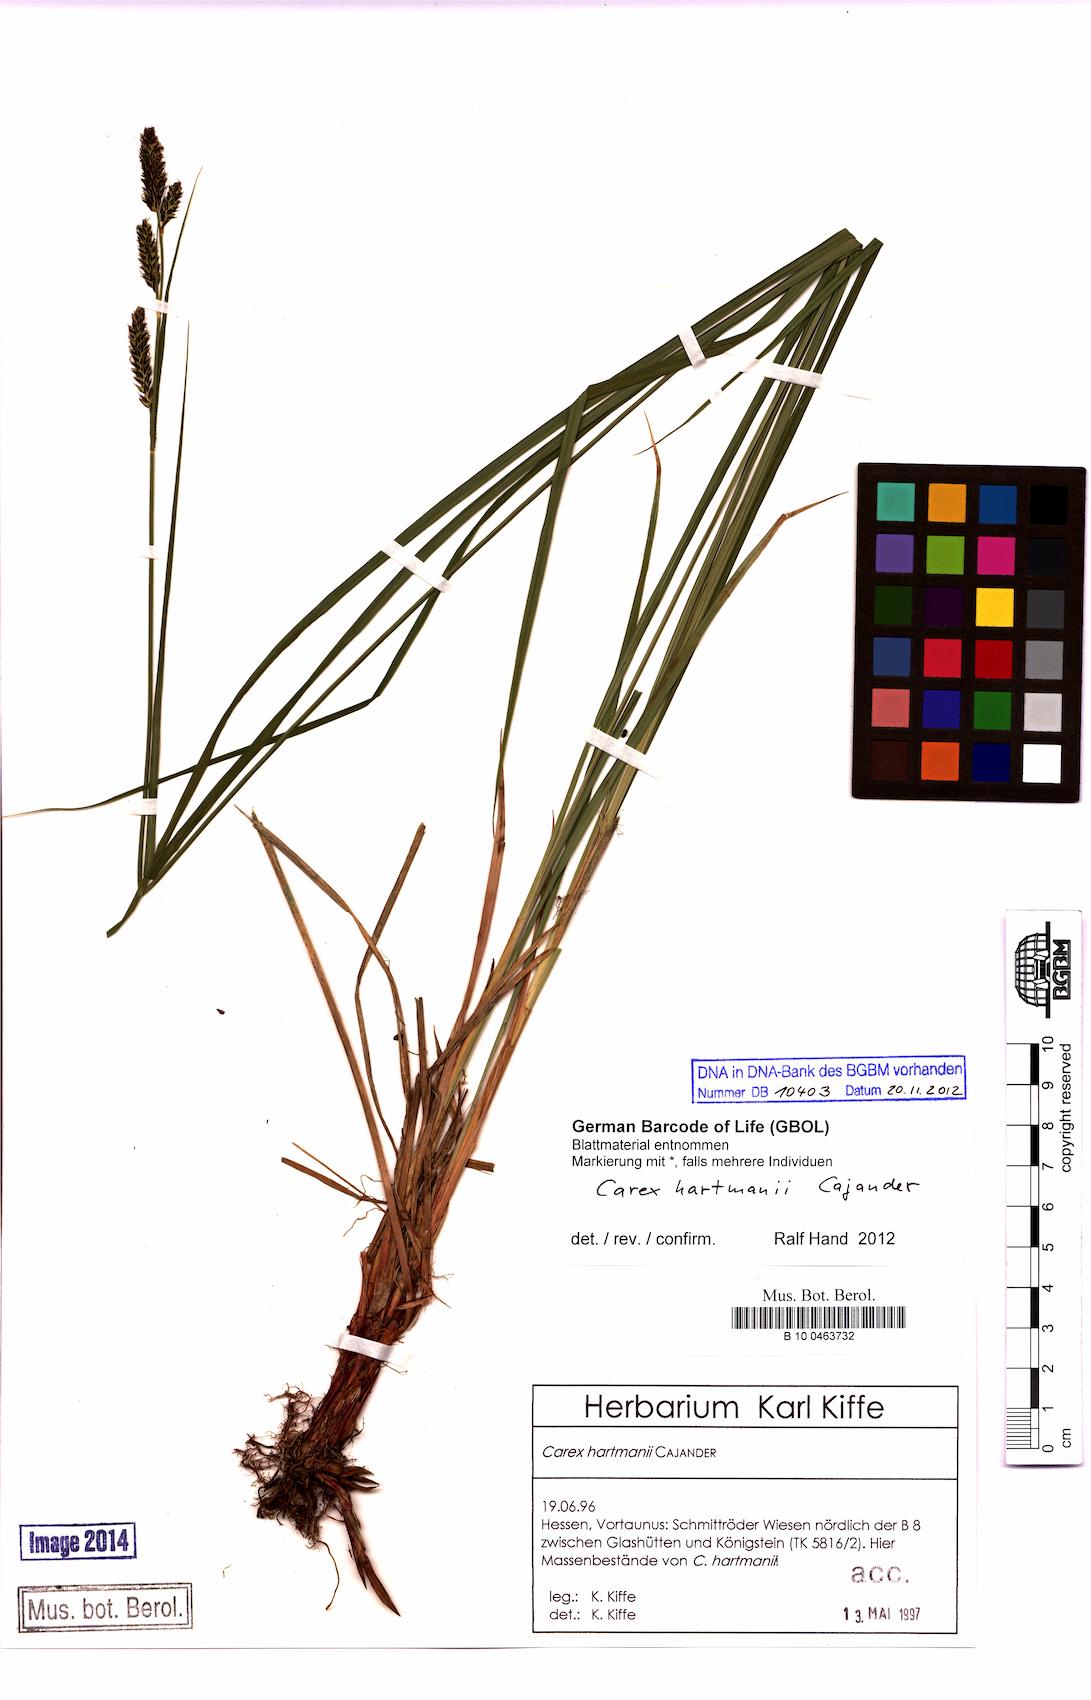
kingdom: Plantae
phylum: Tracheophyta
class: Liliopsida
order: Poales
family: Cyperaceae
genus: Carex
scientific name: Carex hartmaniorum
